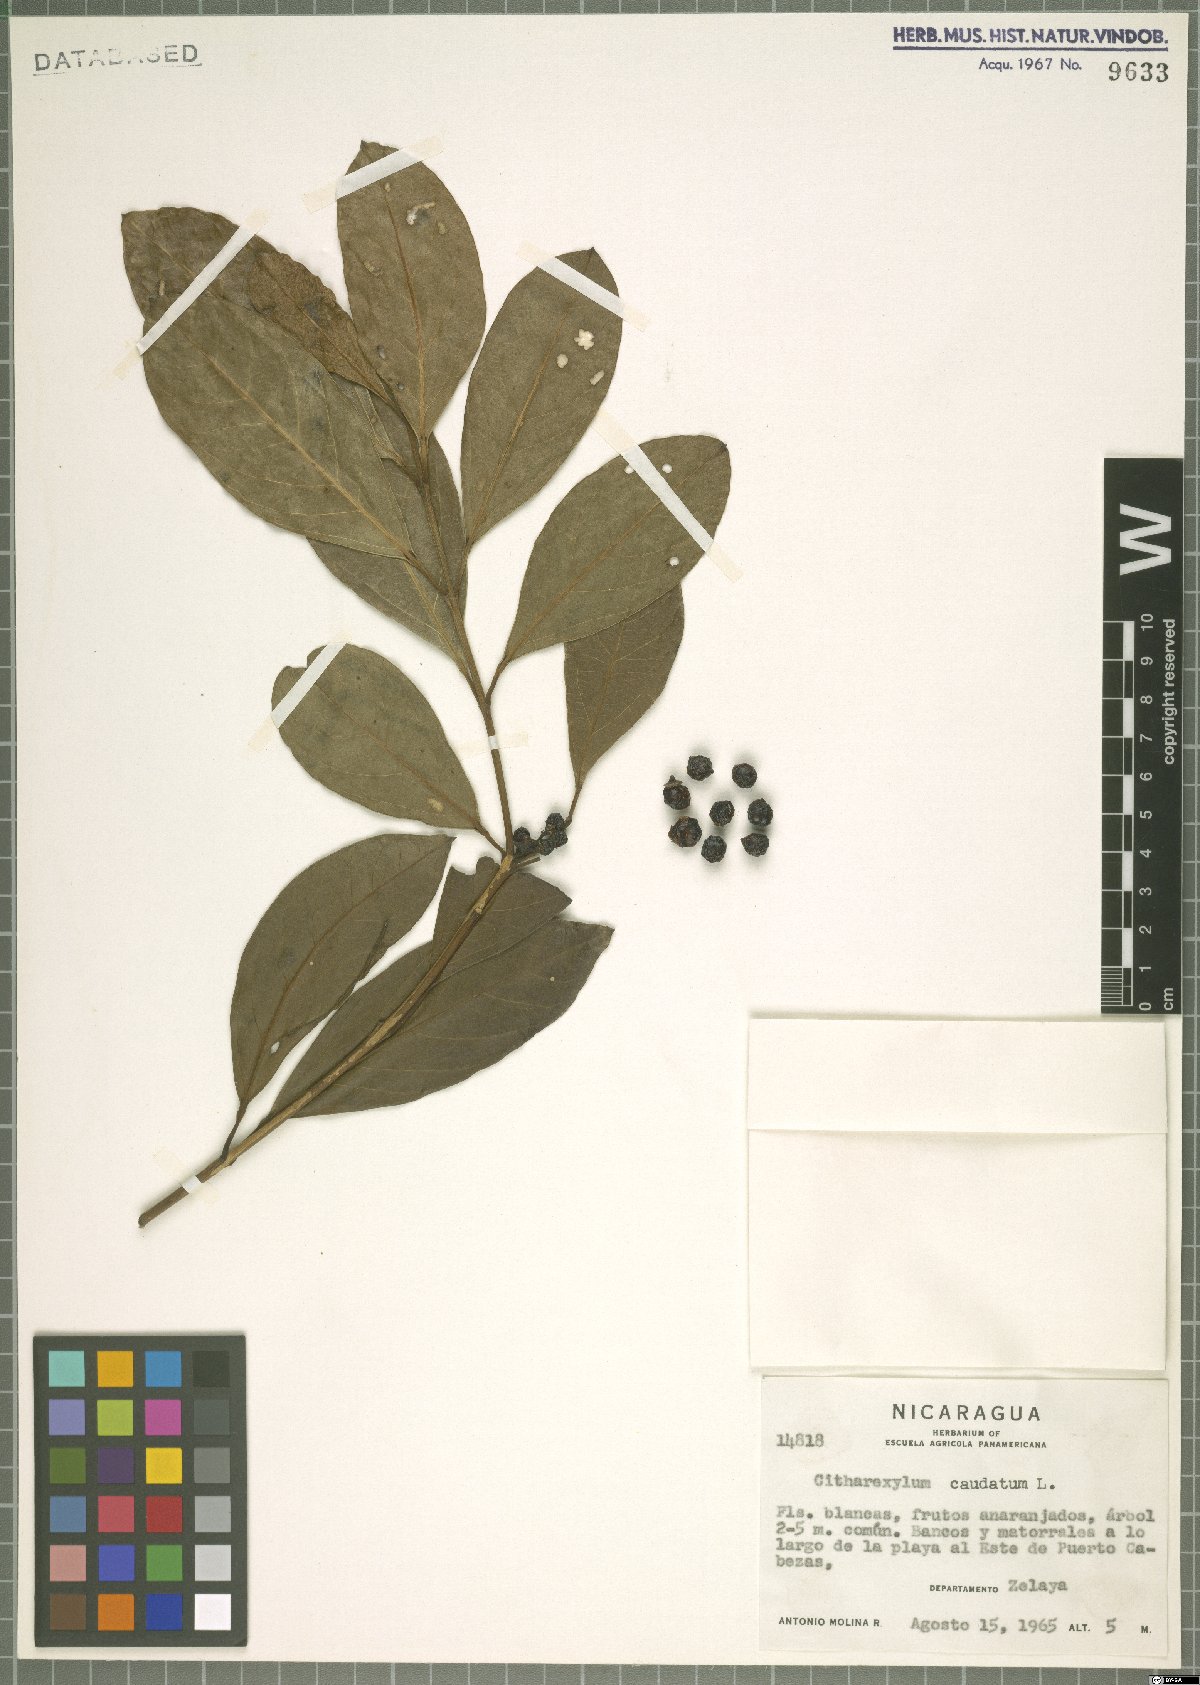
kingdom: Plantae
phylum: Tracheophyta
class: Magnoliopsida
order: Lamiales
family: Verbenaceae
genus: Citharexylum
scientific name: Citharexylum caudatum
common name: Fiddlewood
